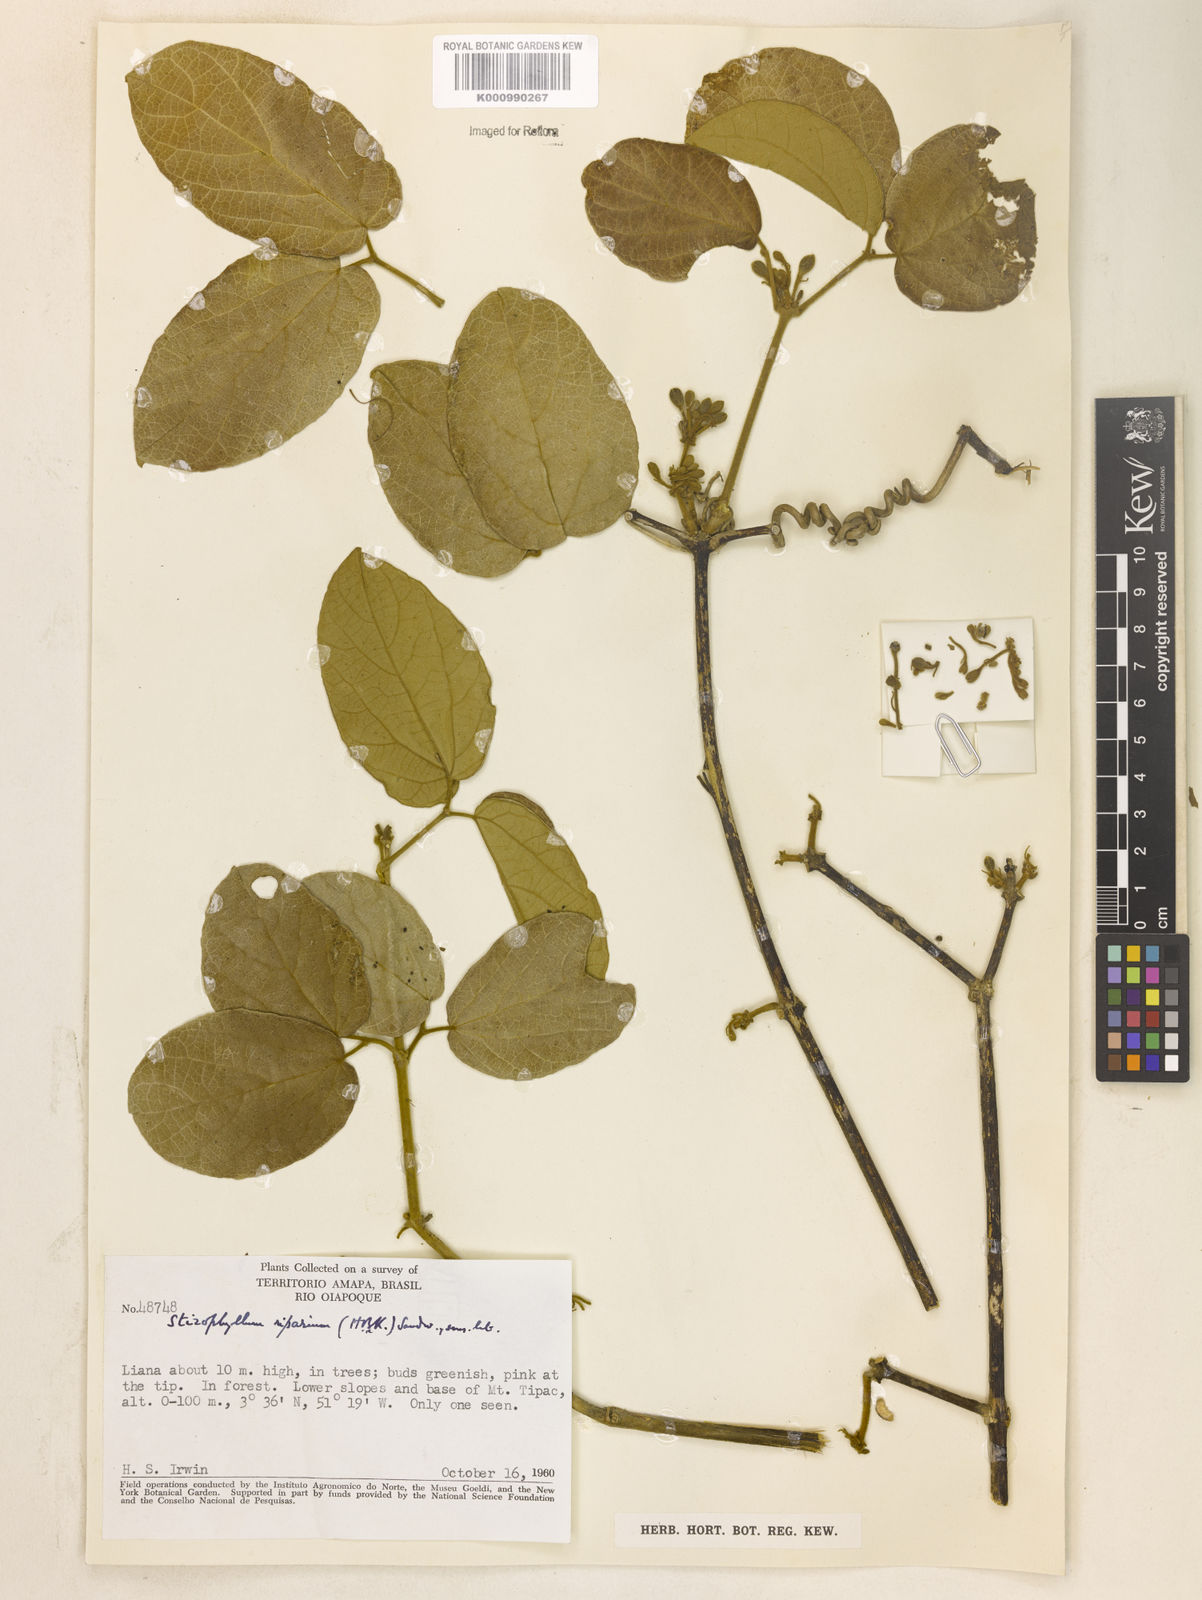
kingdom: Plantae
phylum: Tracheophyta
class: Magnoliopsida
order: Lamiales
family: Bignoniaceae
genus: Stizophyllum
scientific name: Stizophyllum riparium
